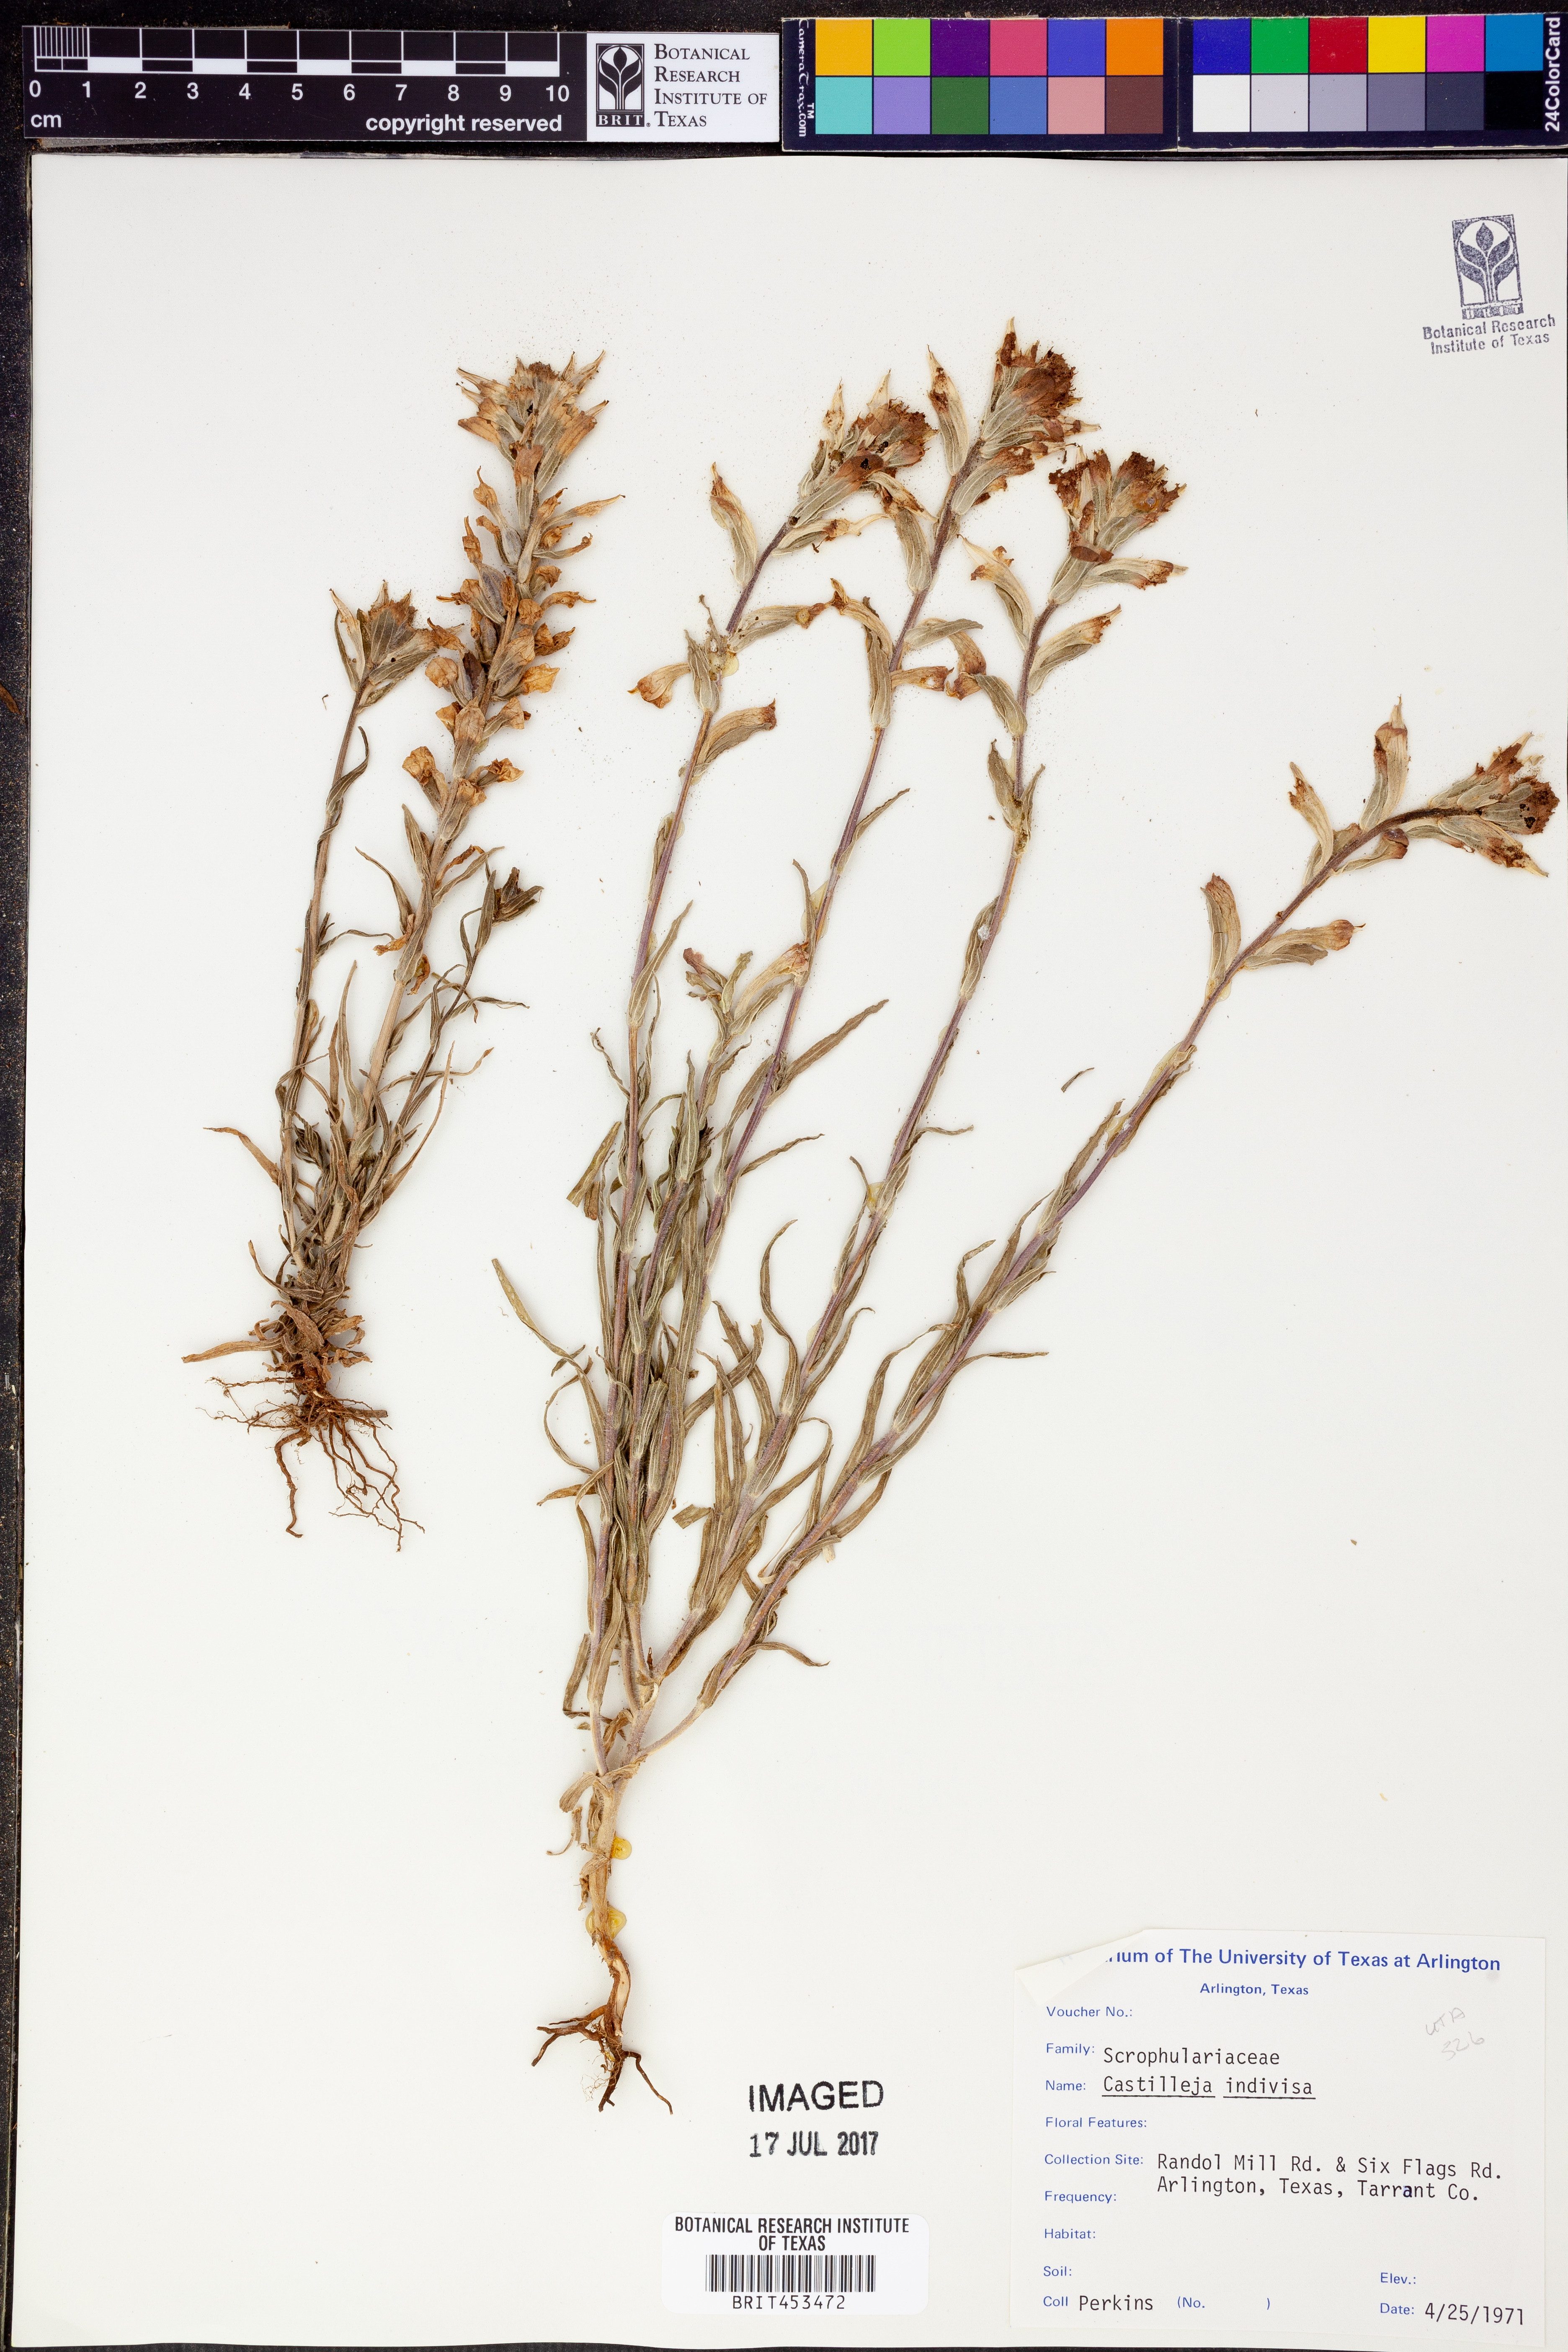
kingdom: Plantae
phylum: Tracheophyta
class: Magnoliopsida
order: Lamiales
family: Orobanchaceae
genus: Castilleja
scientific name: Castilleja indivisa
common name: Texas paintbrush
